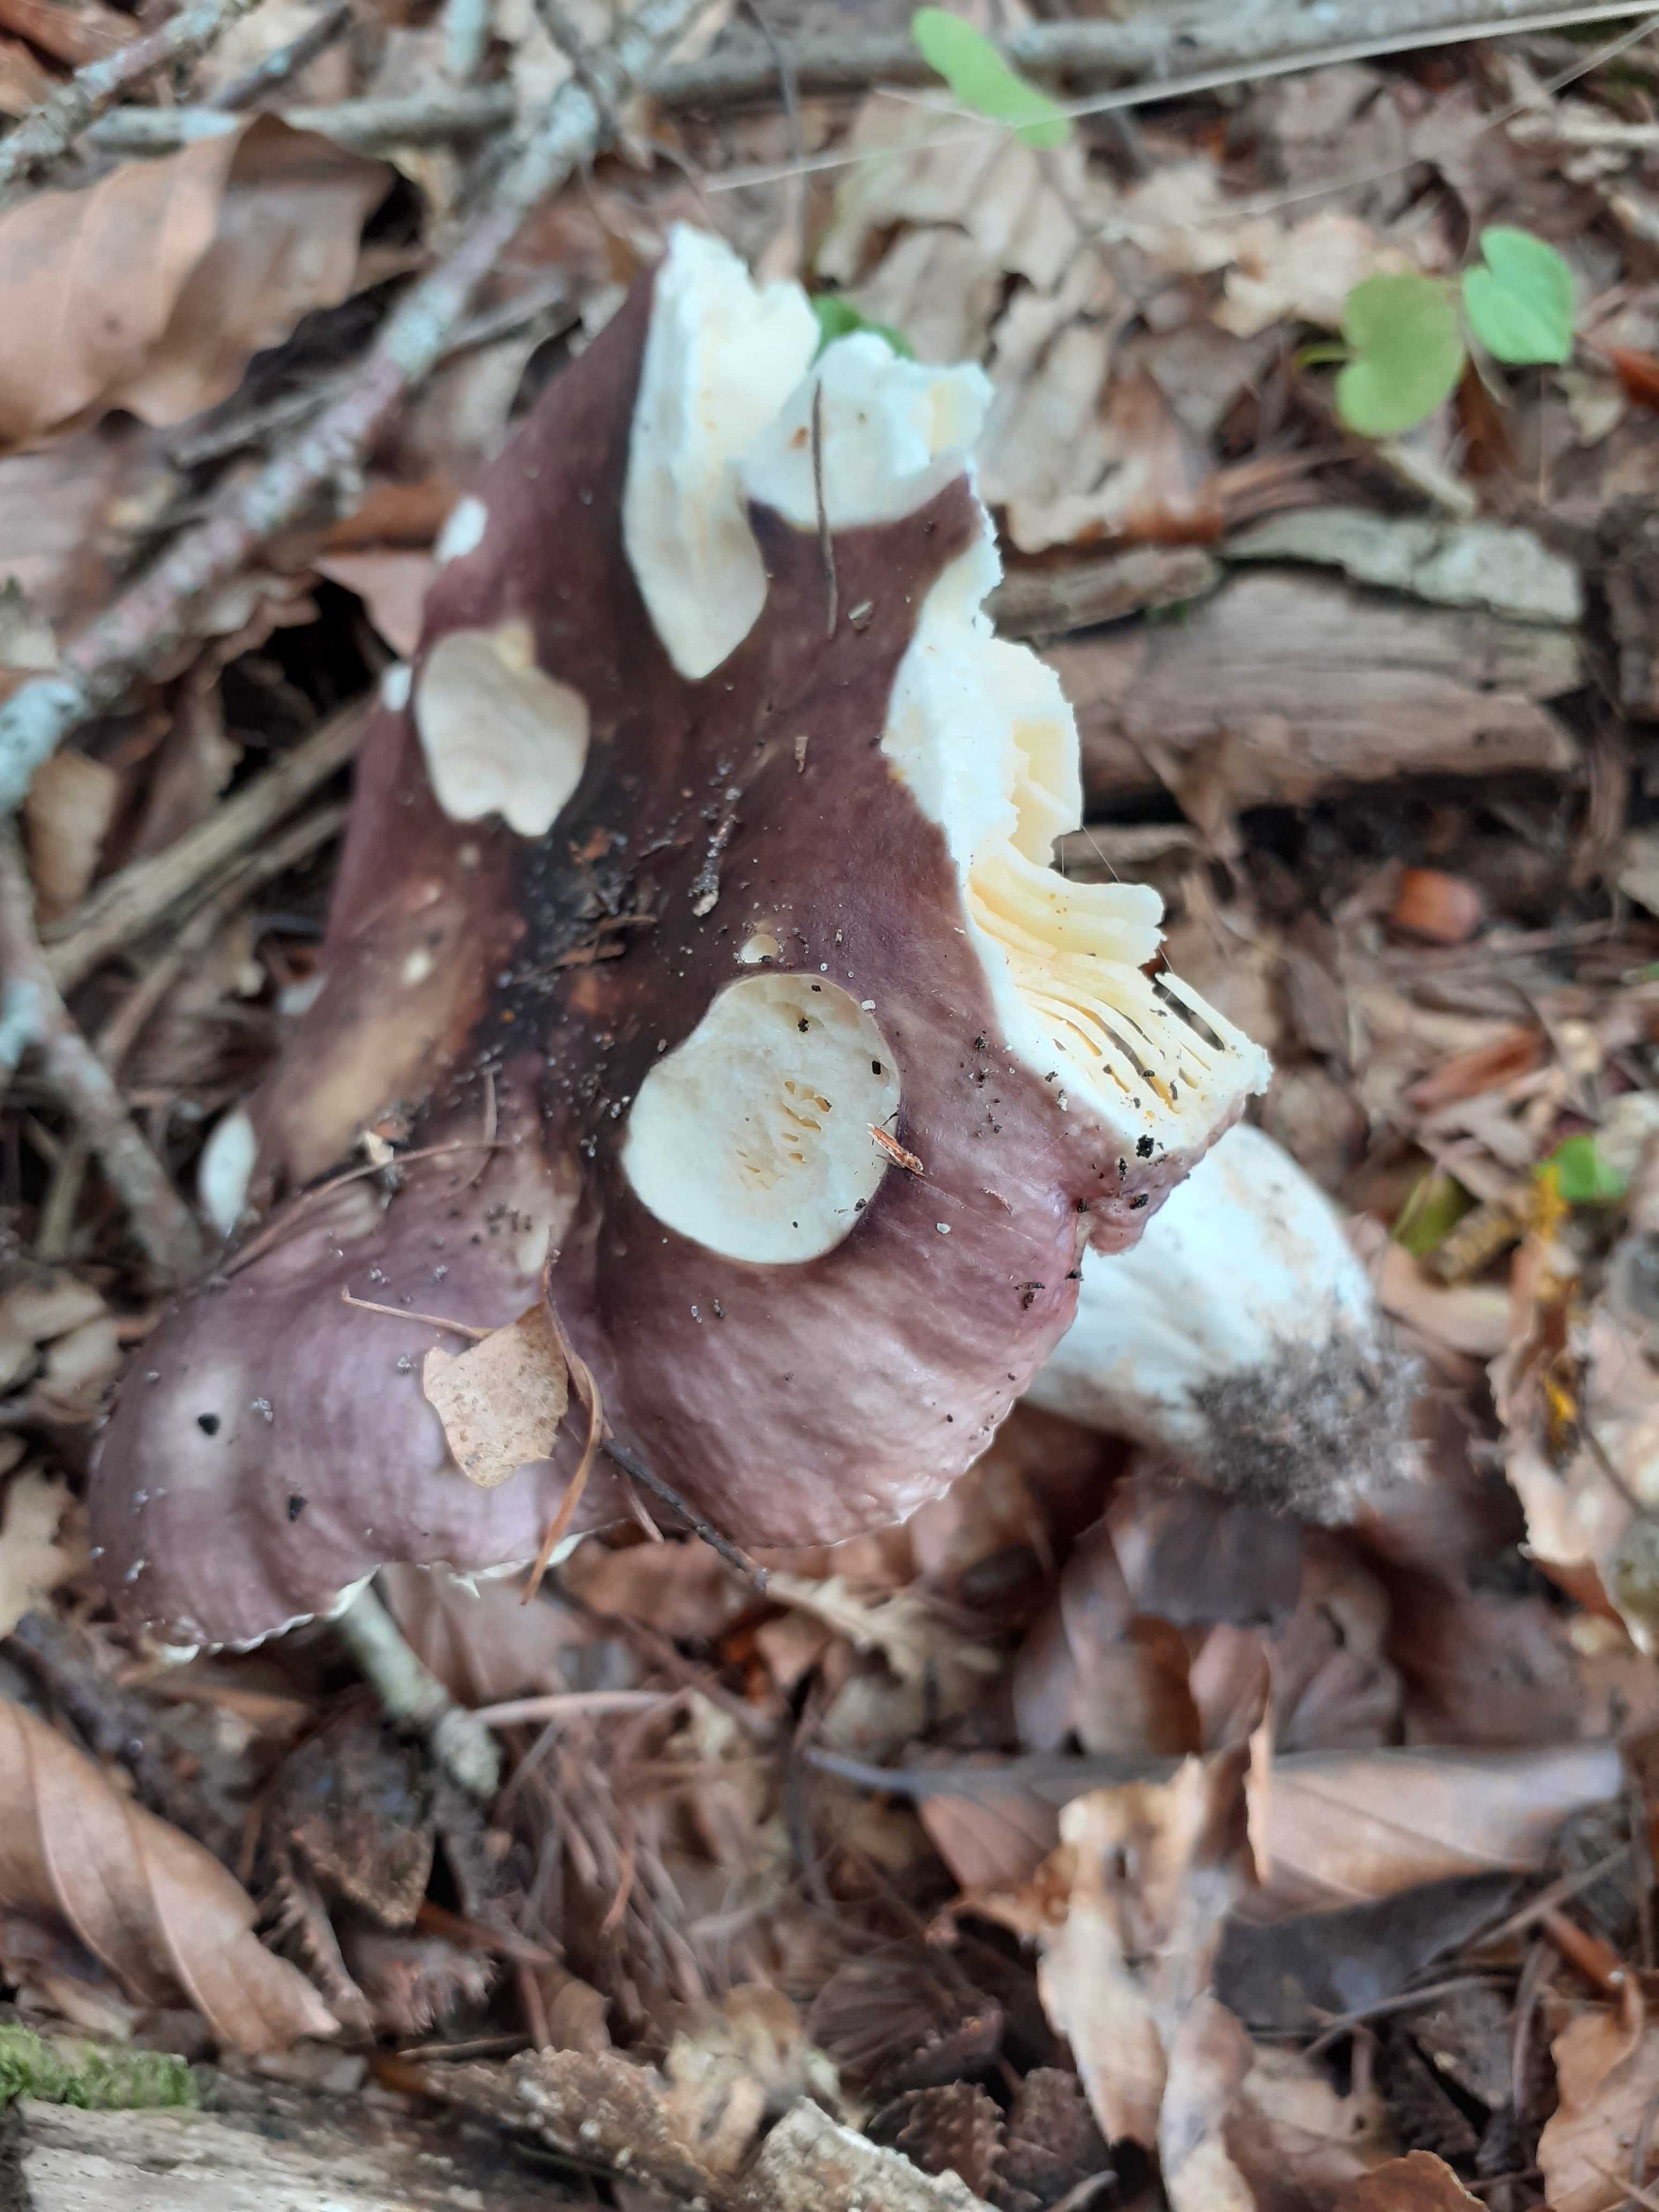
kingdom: Fungi
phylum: Basidiomycota
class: Agaricomycetes
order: Russulales
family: Russulaceae
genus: Russula
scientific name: Russula romellii
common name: romells skørhat
